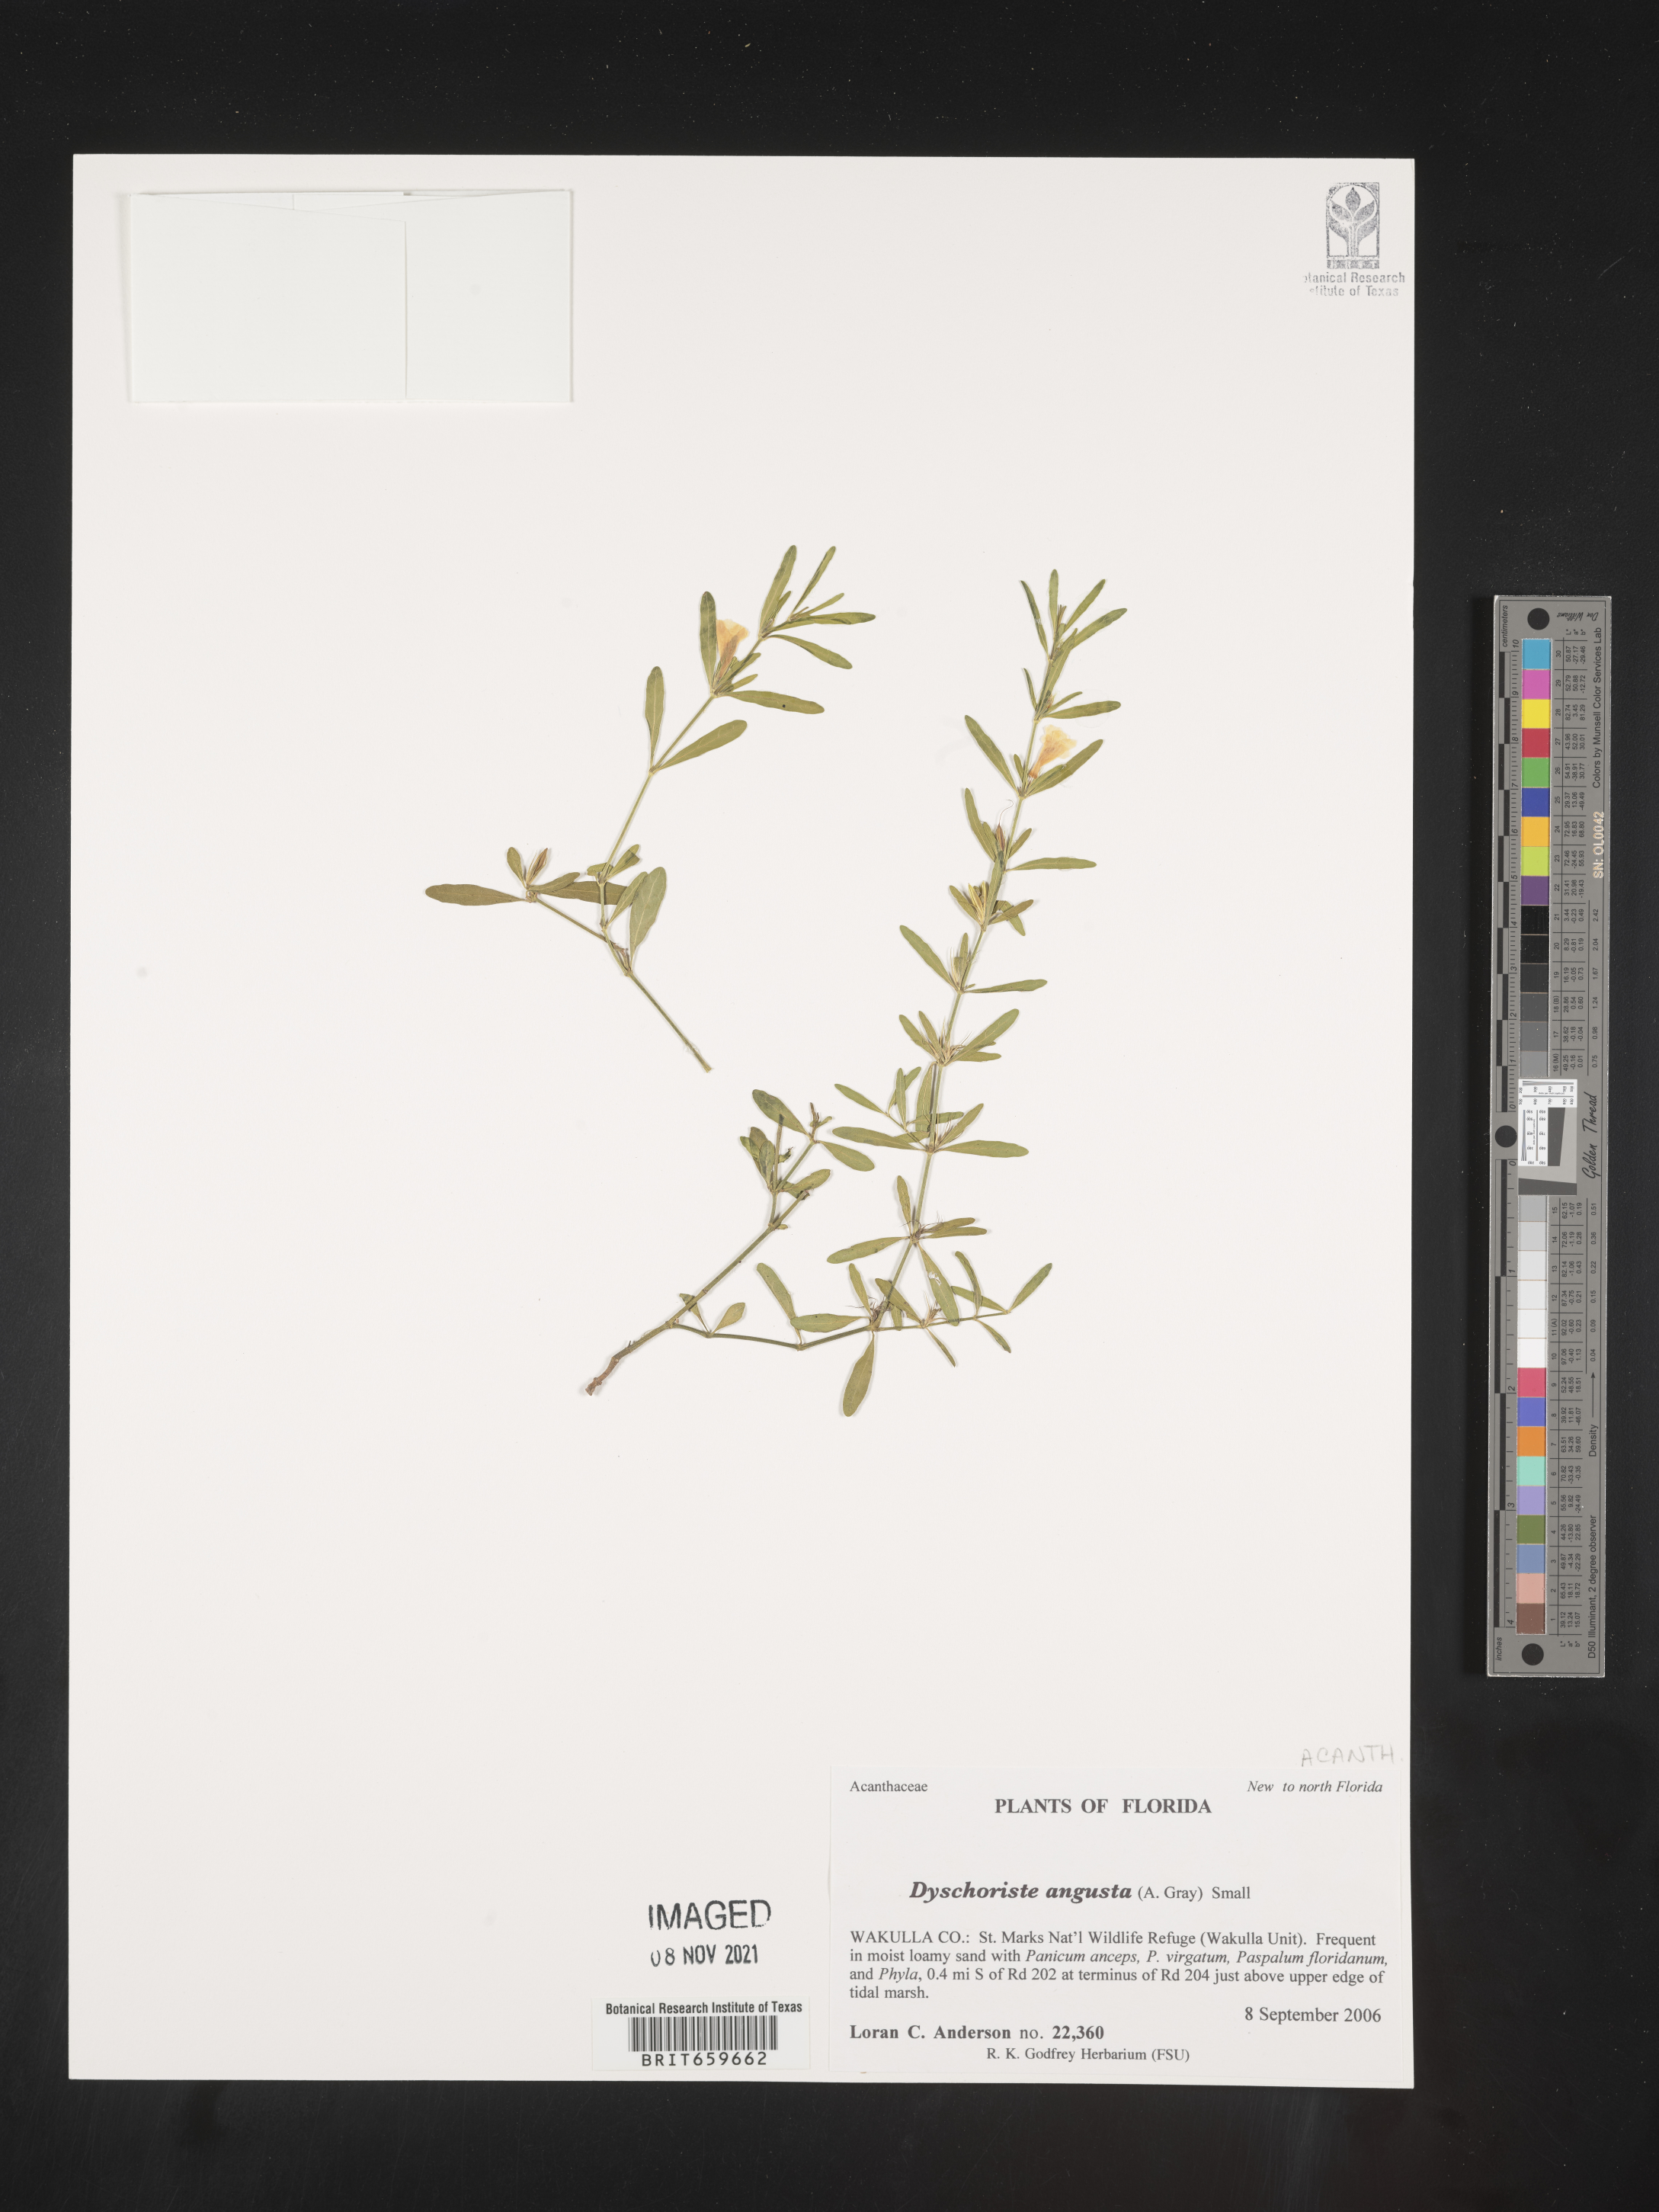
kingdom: Plantae
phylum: Tracheophyta
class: Magnoliopsida
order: Lamiales
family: Acanthaceae
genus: Dyschoriste
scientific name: Dyschoriste angusta
